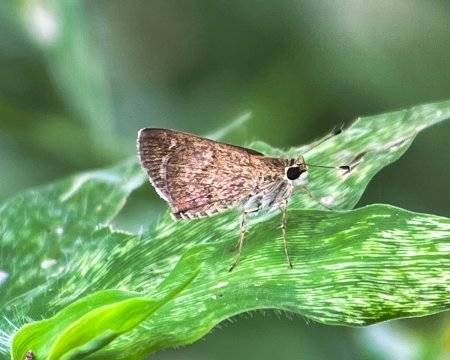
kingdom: Animalia
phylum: Arthropoda
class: Insecta
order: Lepidoptera
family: Hesperiidae
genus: Callimormus
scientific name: Callimormus saturnus
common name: Saturnus Skipper
